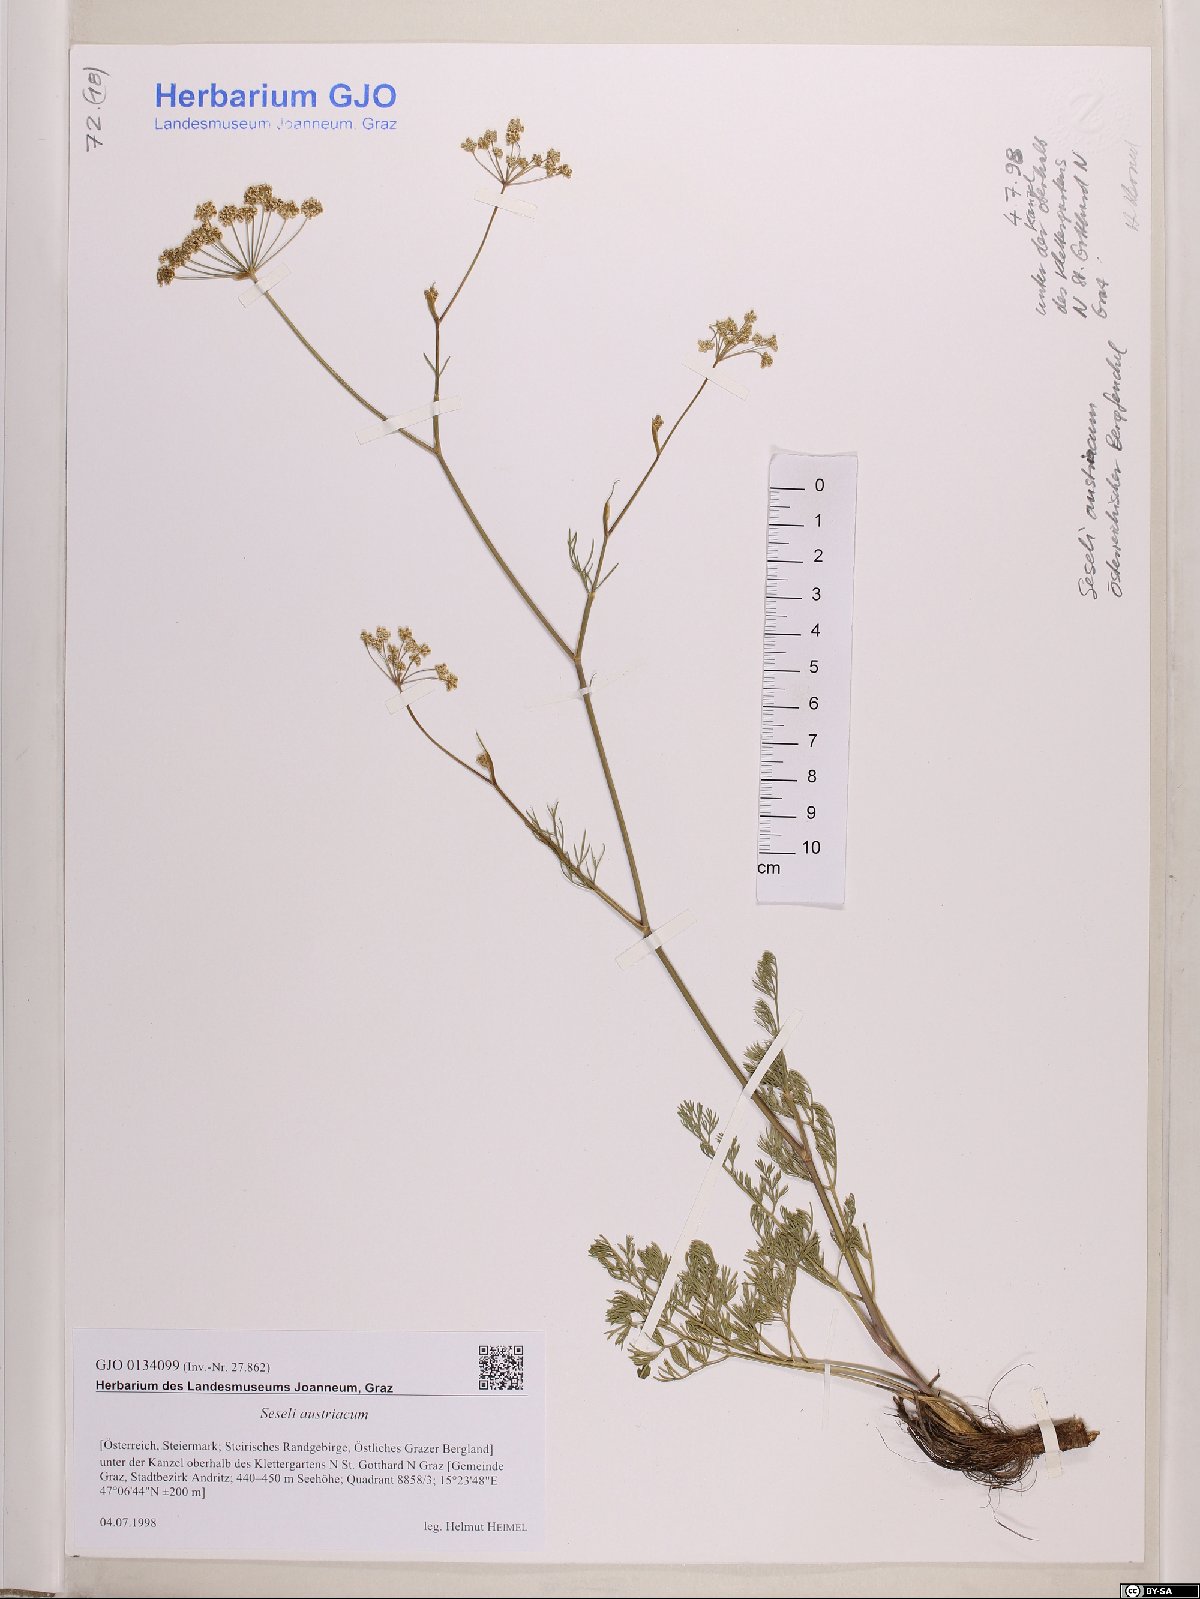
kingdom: Plantae
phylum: Tracheophyta
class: Magnoliopsida
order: Apiales
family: Apiaceae
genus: Seseli
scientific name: Seseli austriacum
